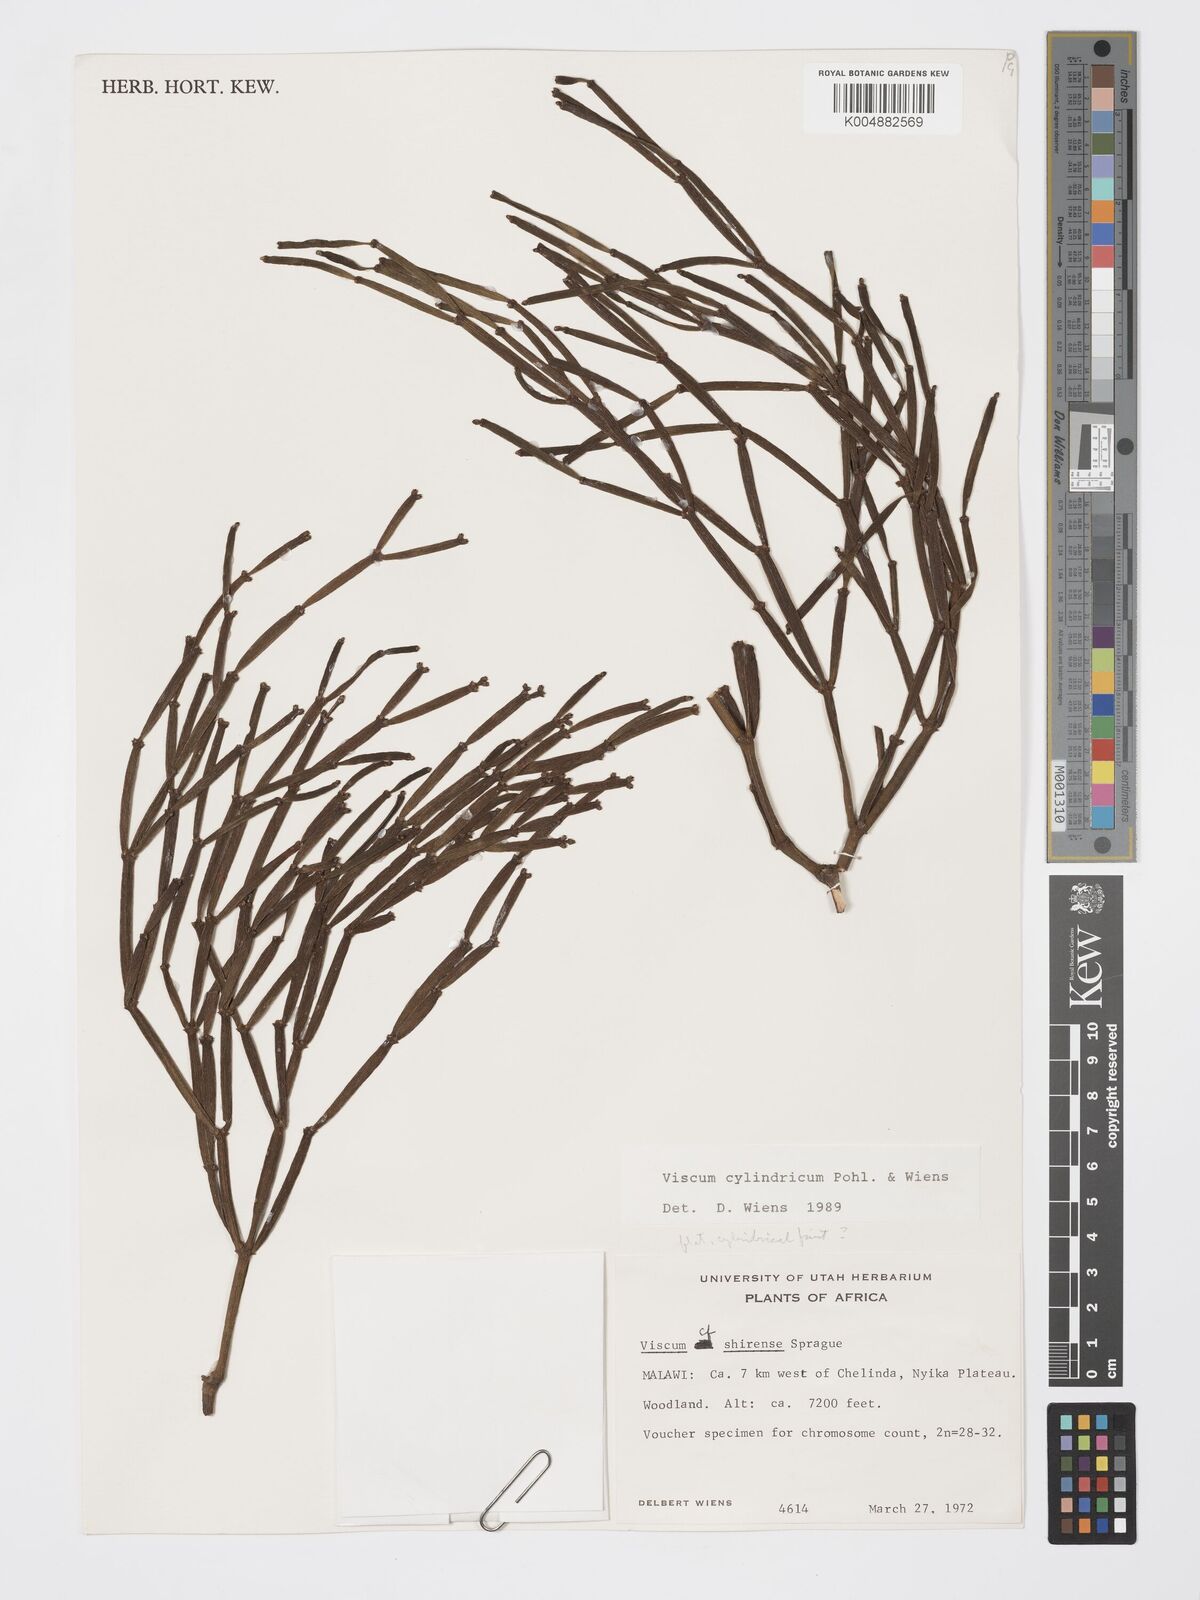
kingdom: Plantae
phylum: Tracheophyta
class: Magnoliopsida
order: Santalales
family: Viscaceae
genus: Viscum
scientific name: Viscum cylindricum
